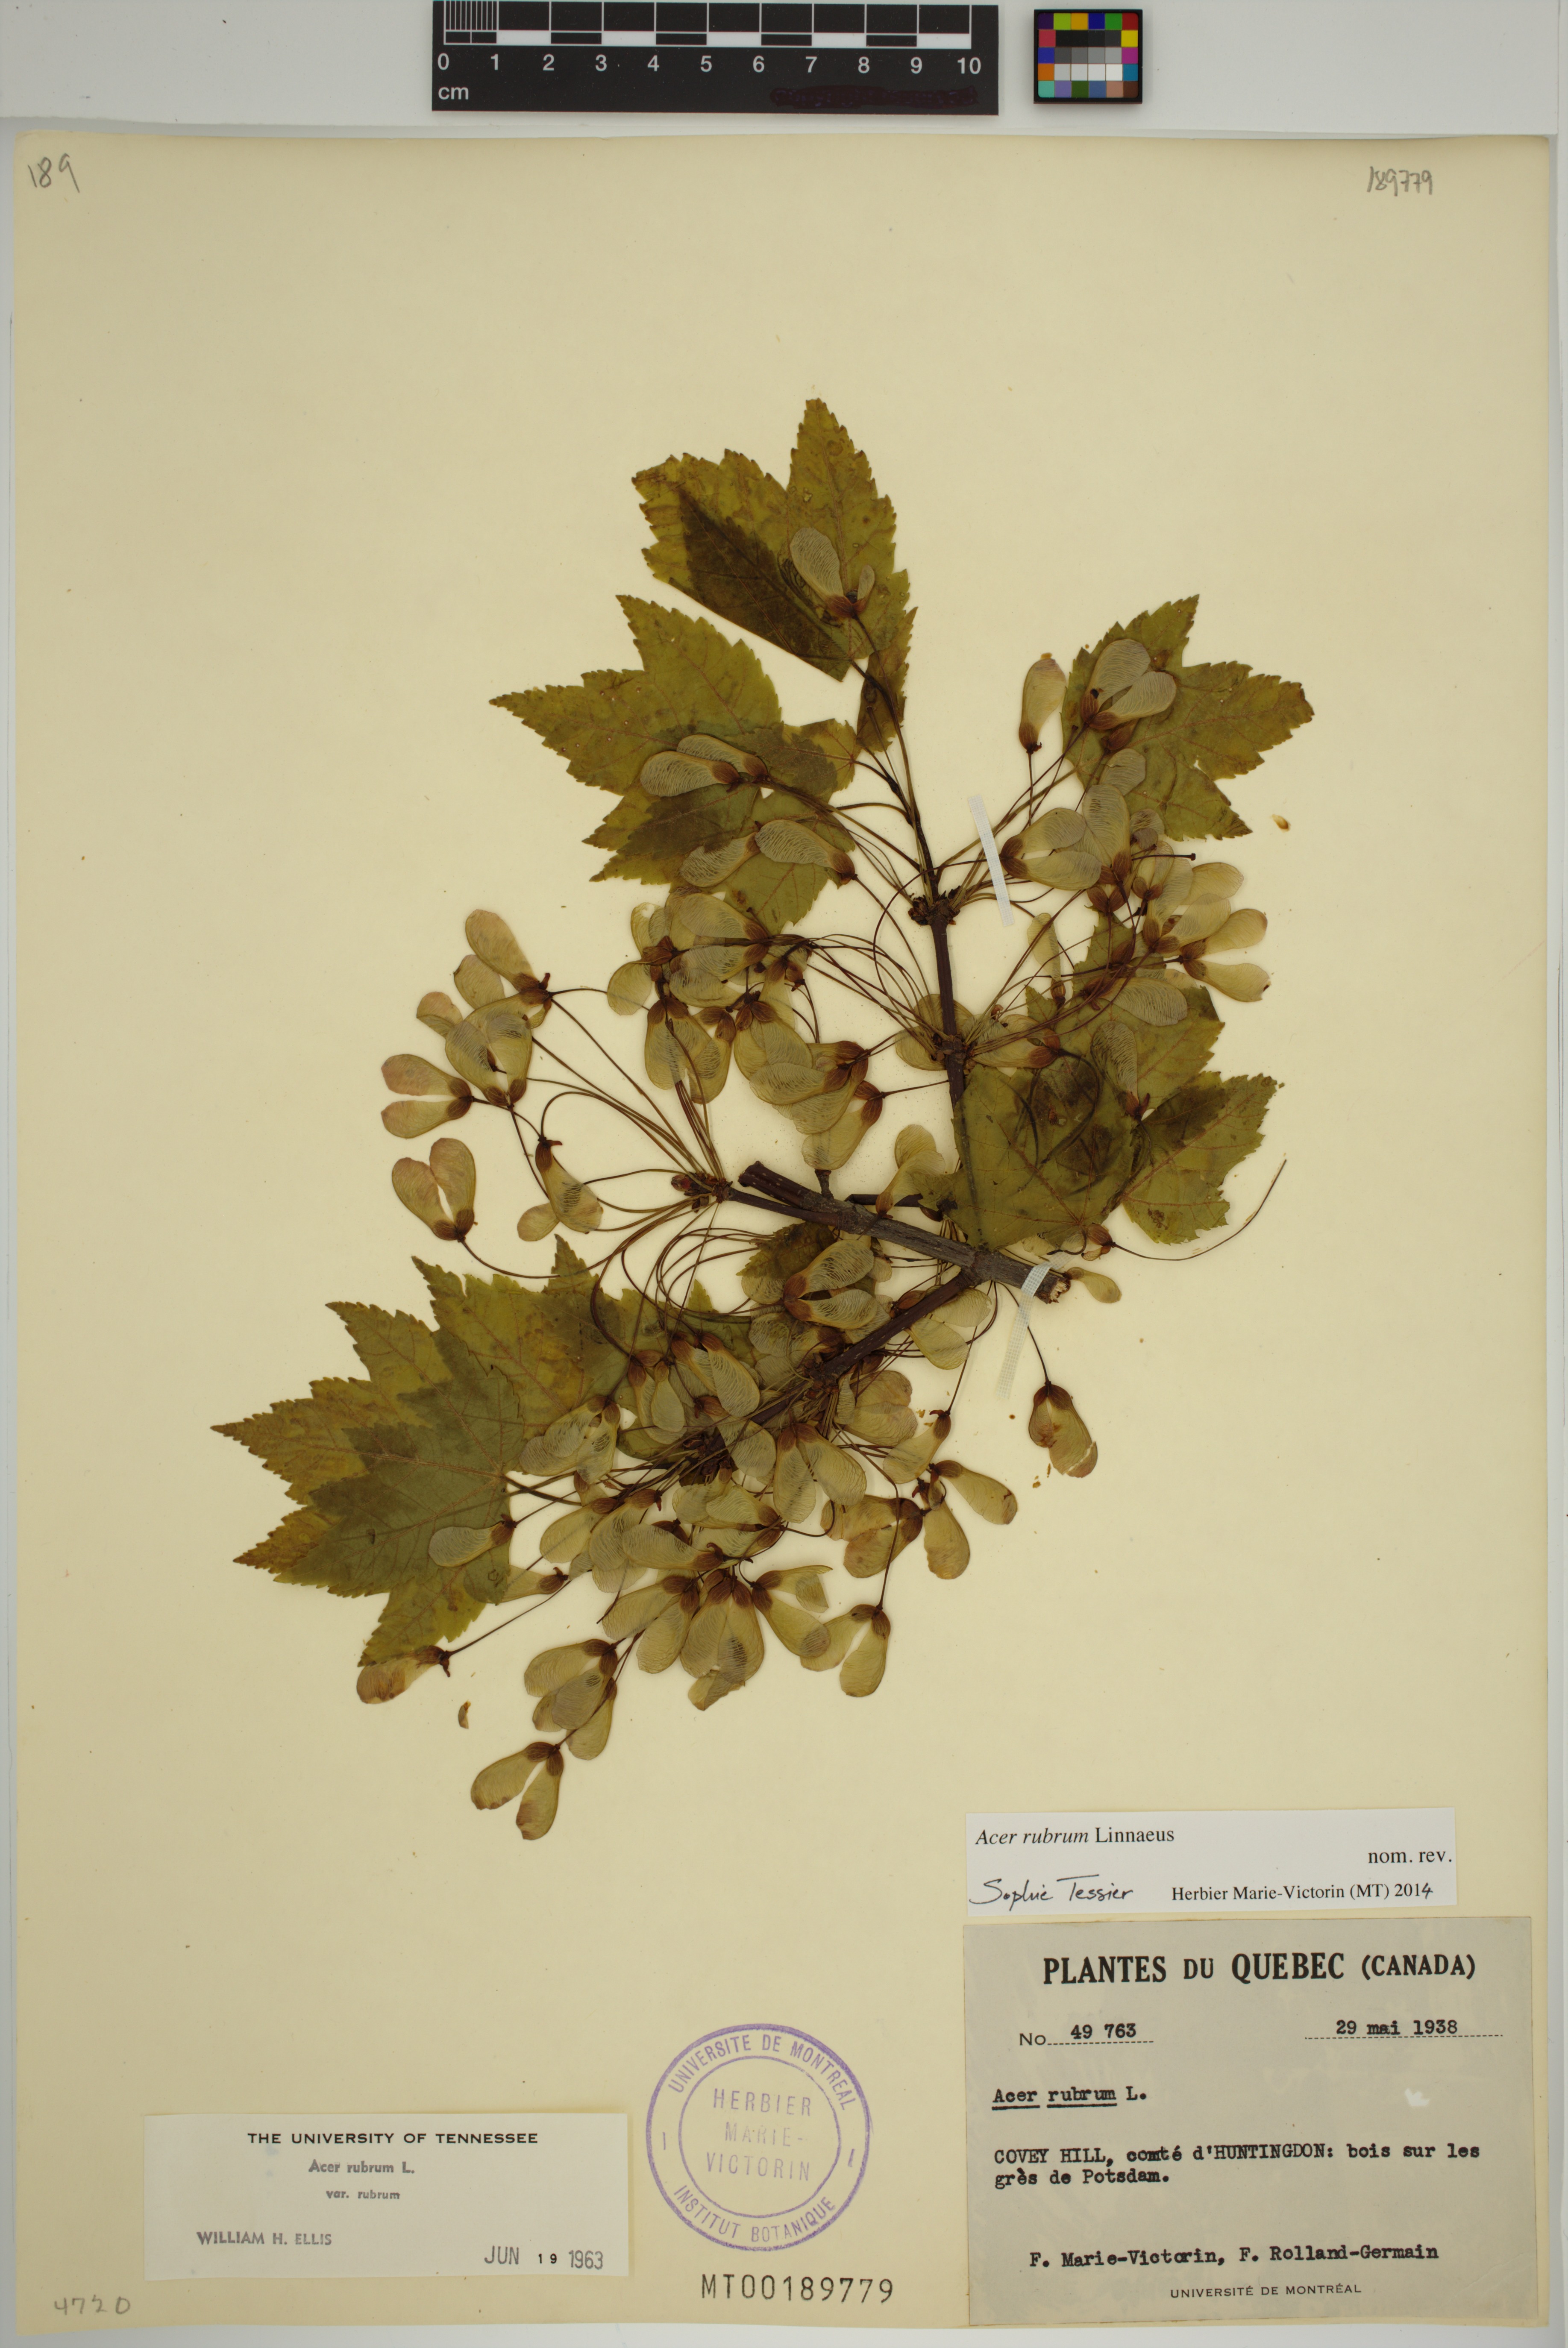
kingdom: Plantae
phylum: Tracheophyta
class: Magnoliopsida
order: Sapindales
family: Sapindaceae
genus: Acer
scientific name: Acer rubrum
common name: Red maple
